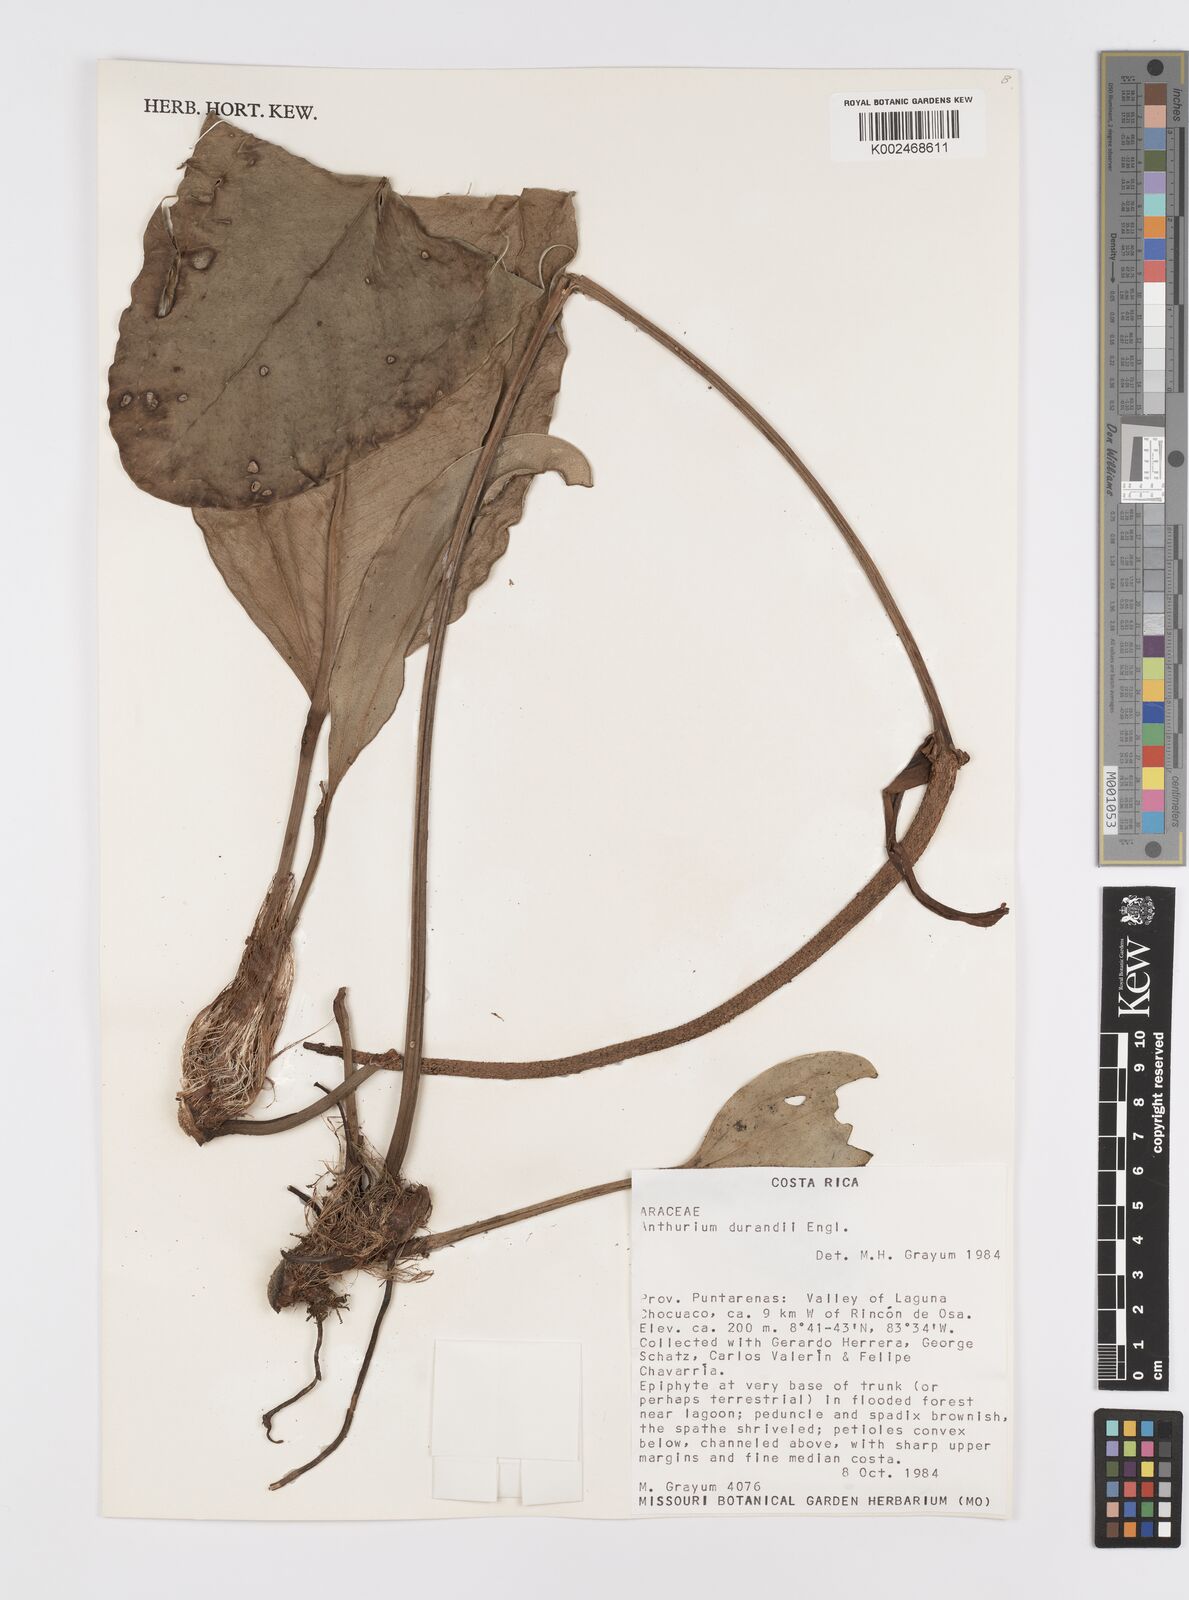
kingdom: Plantae
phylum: Tracheophyta
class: Liliopsida
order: Alismatales
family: Araceae
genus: Anthurium
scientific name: Anthurium durandii
